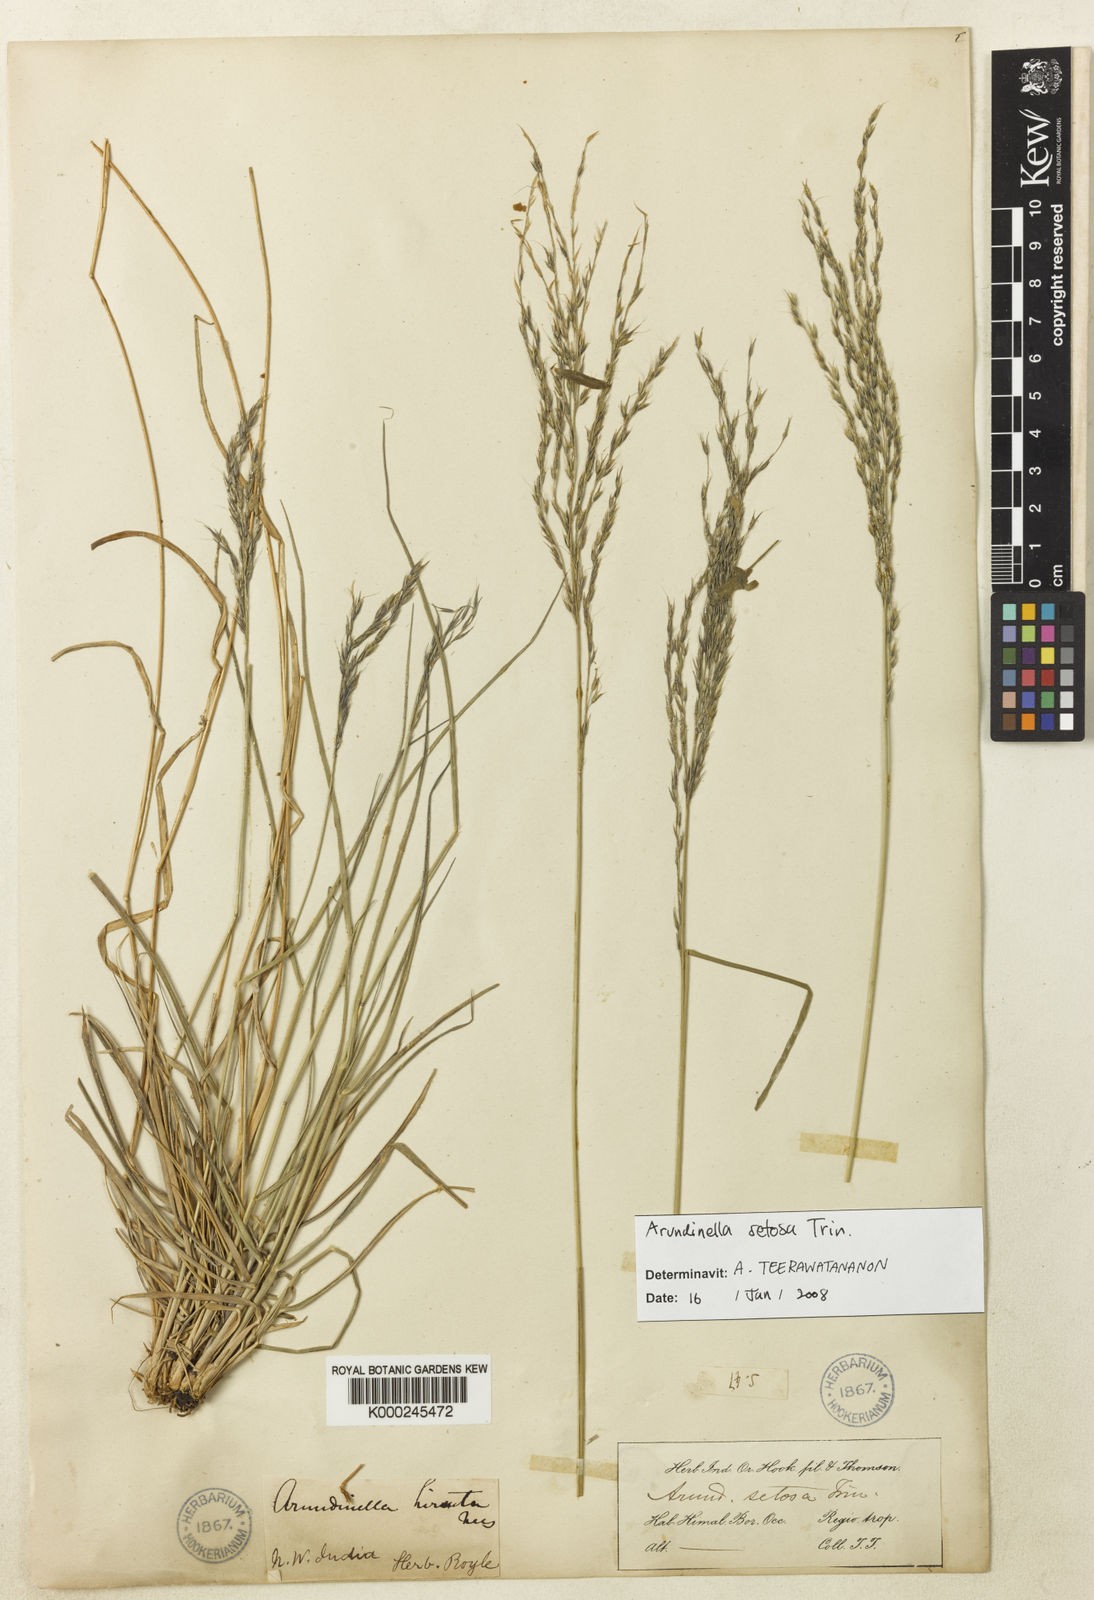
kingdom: Plantae
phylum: Tracheophyta
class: Liliopsida
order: Poales
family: Poaceae
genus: Arundinella
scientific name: Arundinella setosa
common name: Reed grass
